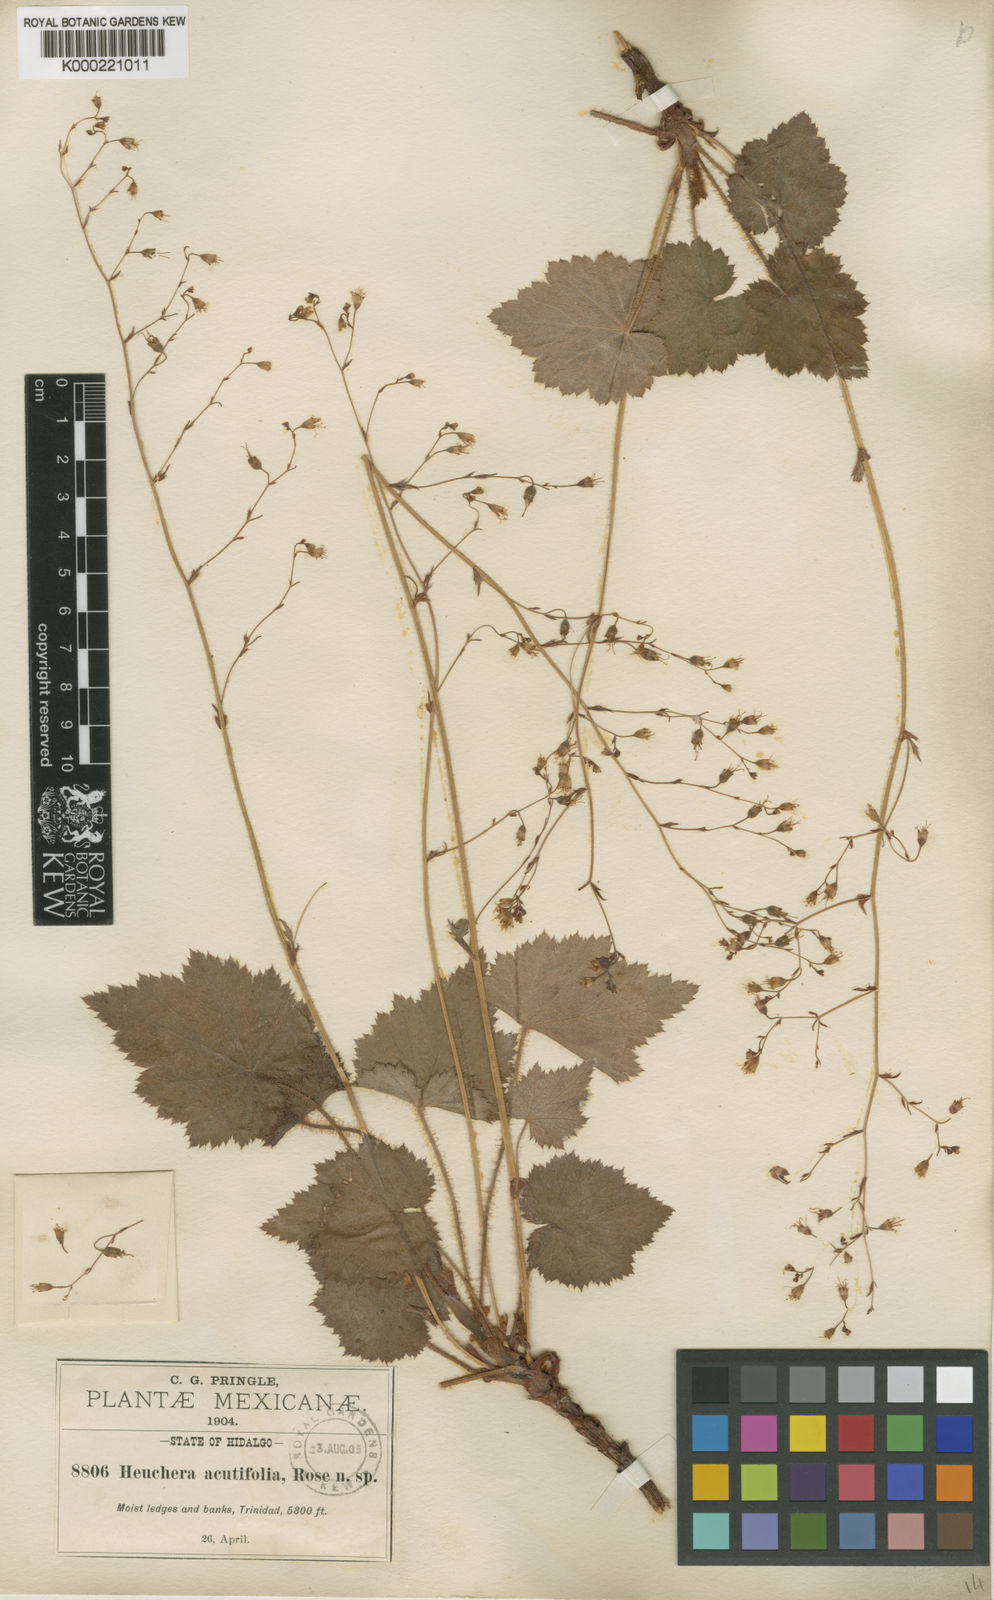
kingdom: Plantae
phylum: Tracheophyta
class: Magnoliopsida
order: Saxifragales
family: Saxifragaceae
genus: Heuchera
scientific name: Heuchera acutifolia
